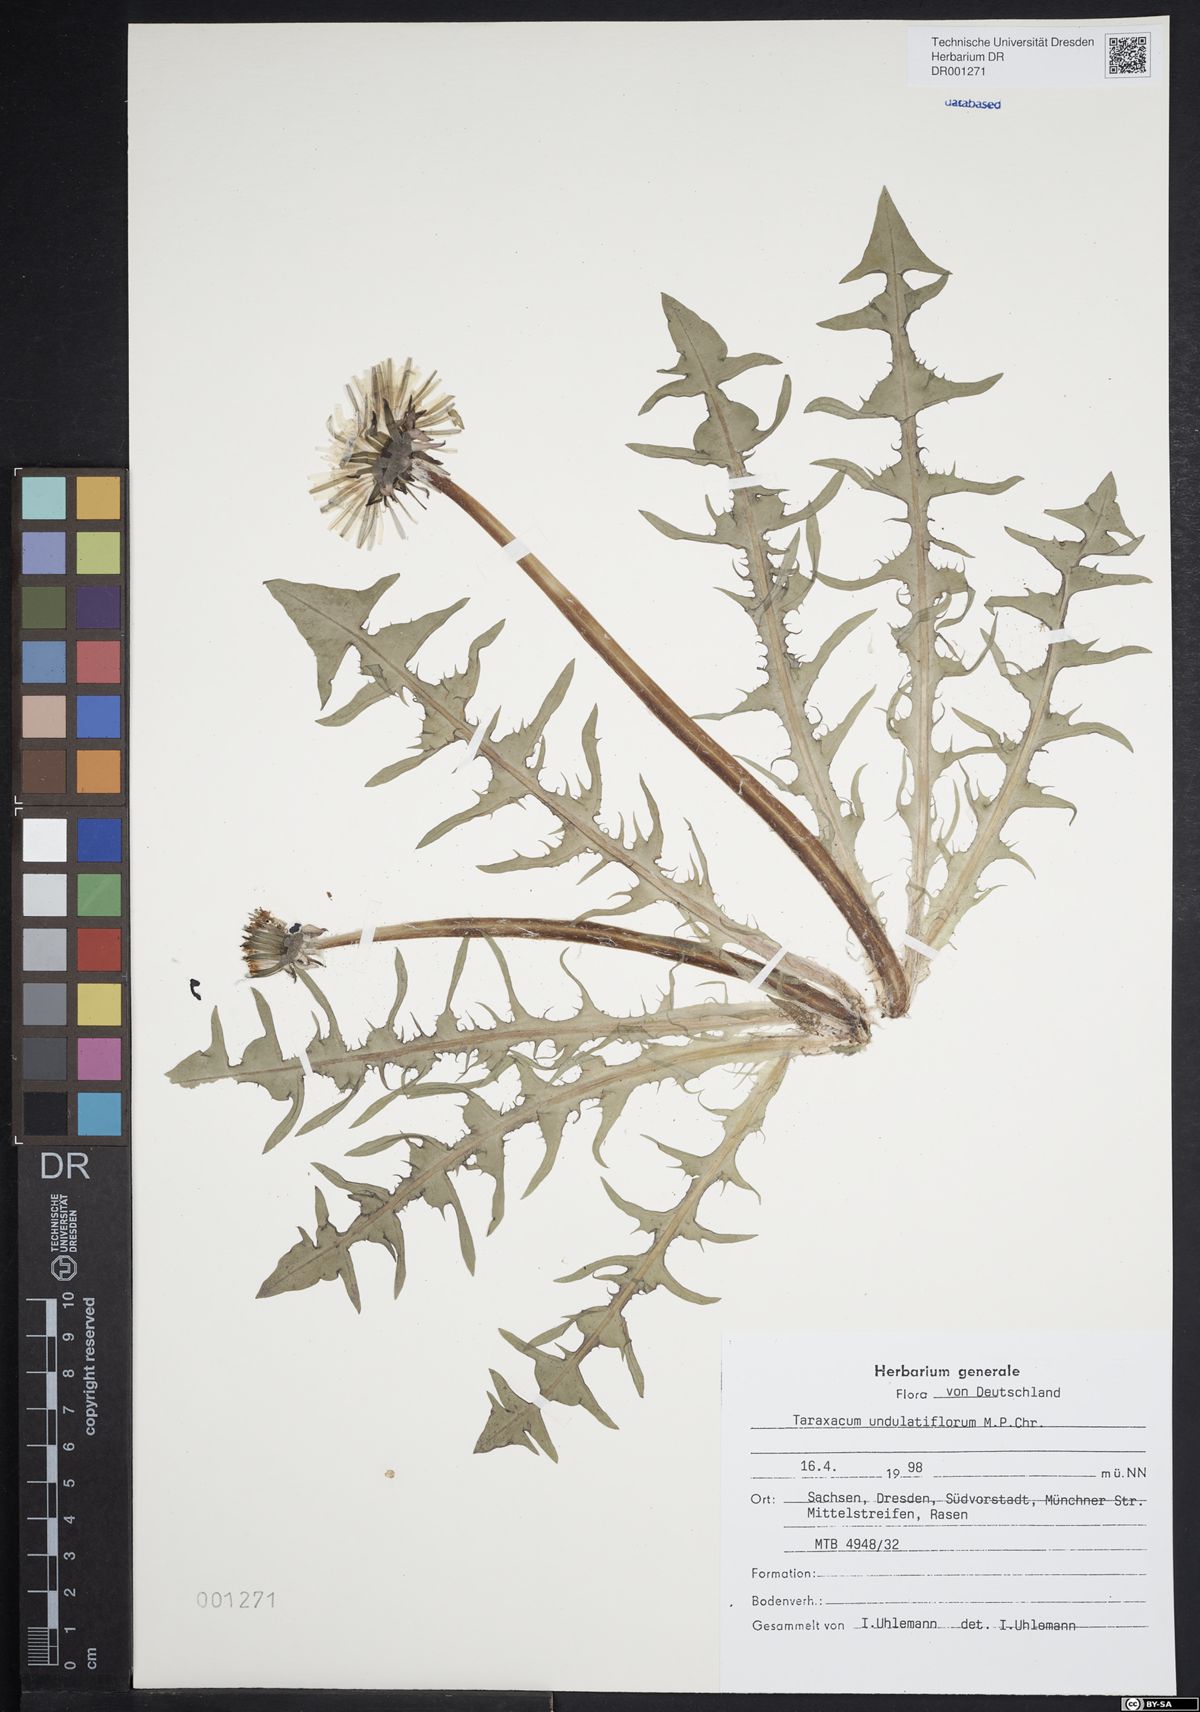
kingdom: Plantae
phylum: Tracheophyta
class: Magnoliopsida
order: Asterales
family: Asteraceae
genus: Taraxacum
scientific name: Taraxacum undulatiflorum
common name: Dull-leaved dandelion
